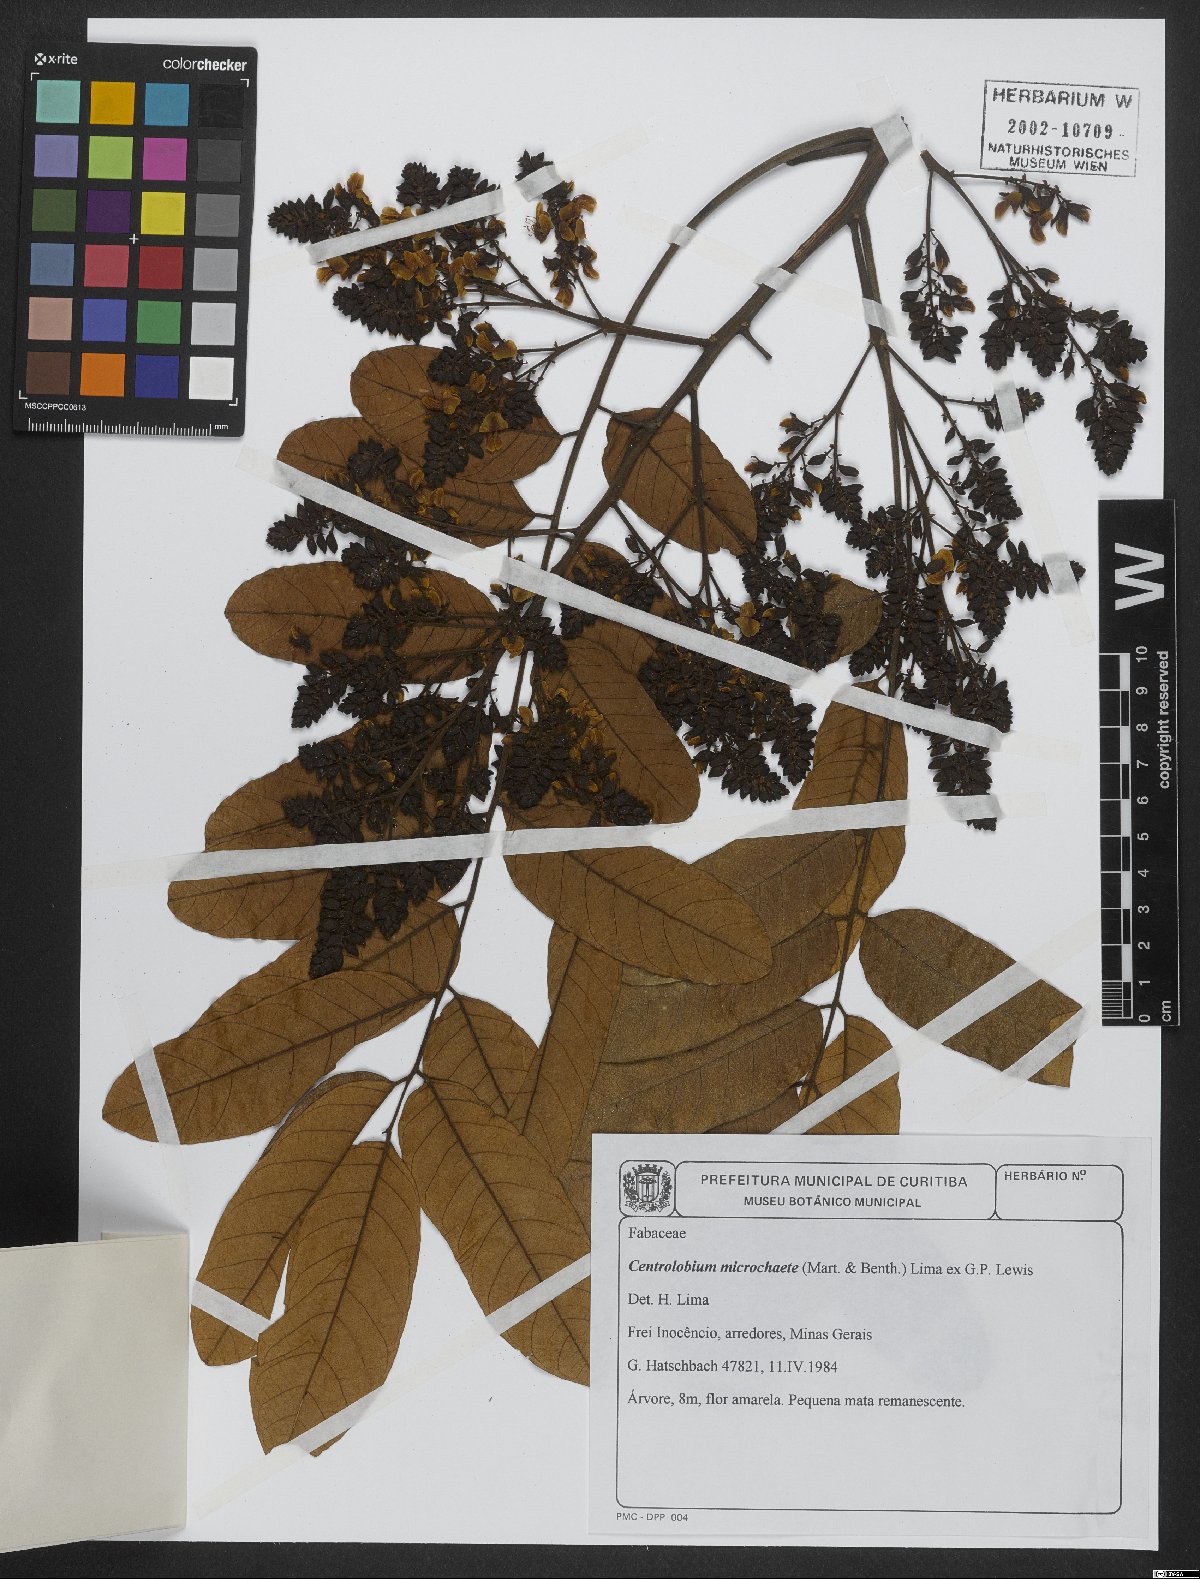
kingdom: Plantae
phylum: Tracheophyta
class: Magnoliopsida
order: Fabales
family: Fabaceae
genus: Centrolobium
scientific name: Centrolobium microchaete
